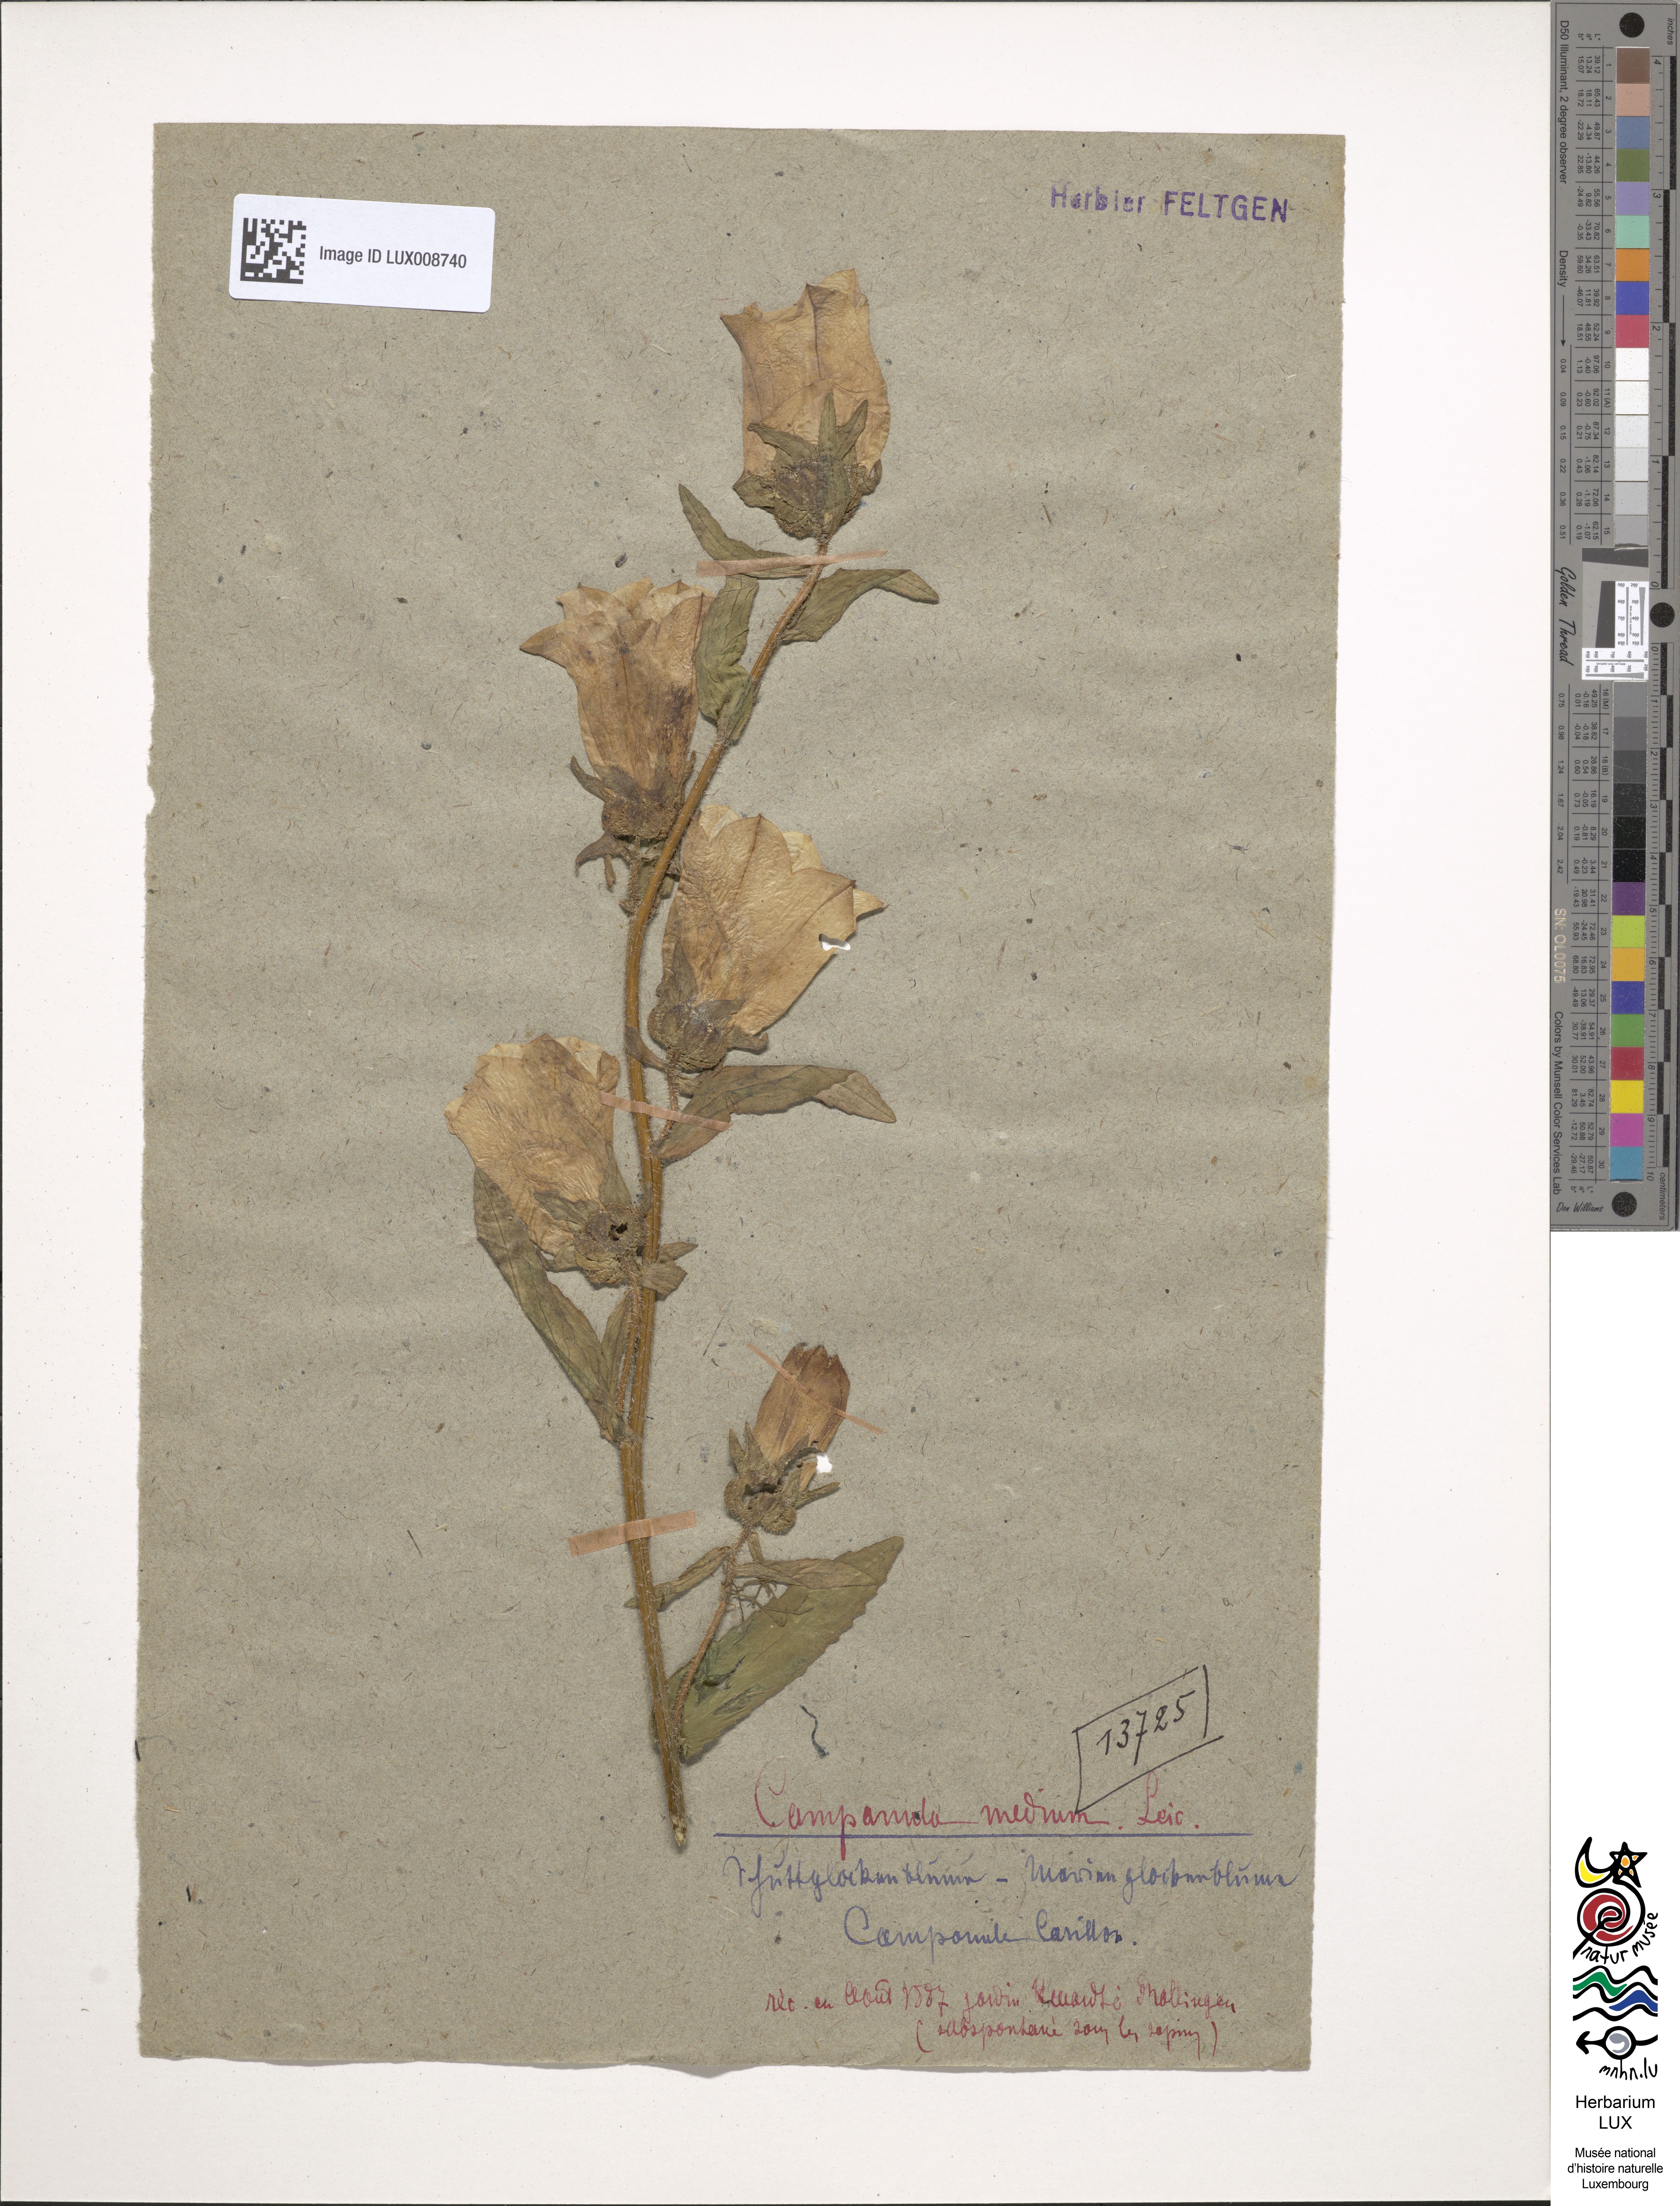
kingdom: Plantae
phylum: Tracheophyta
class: Magnoliopsida
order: Asterales
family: Campanulaceae
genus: Campanula
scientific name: Campanula medium
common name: Canterbury bells
